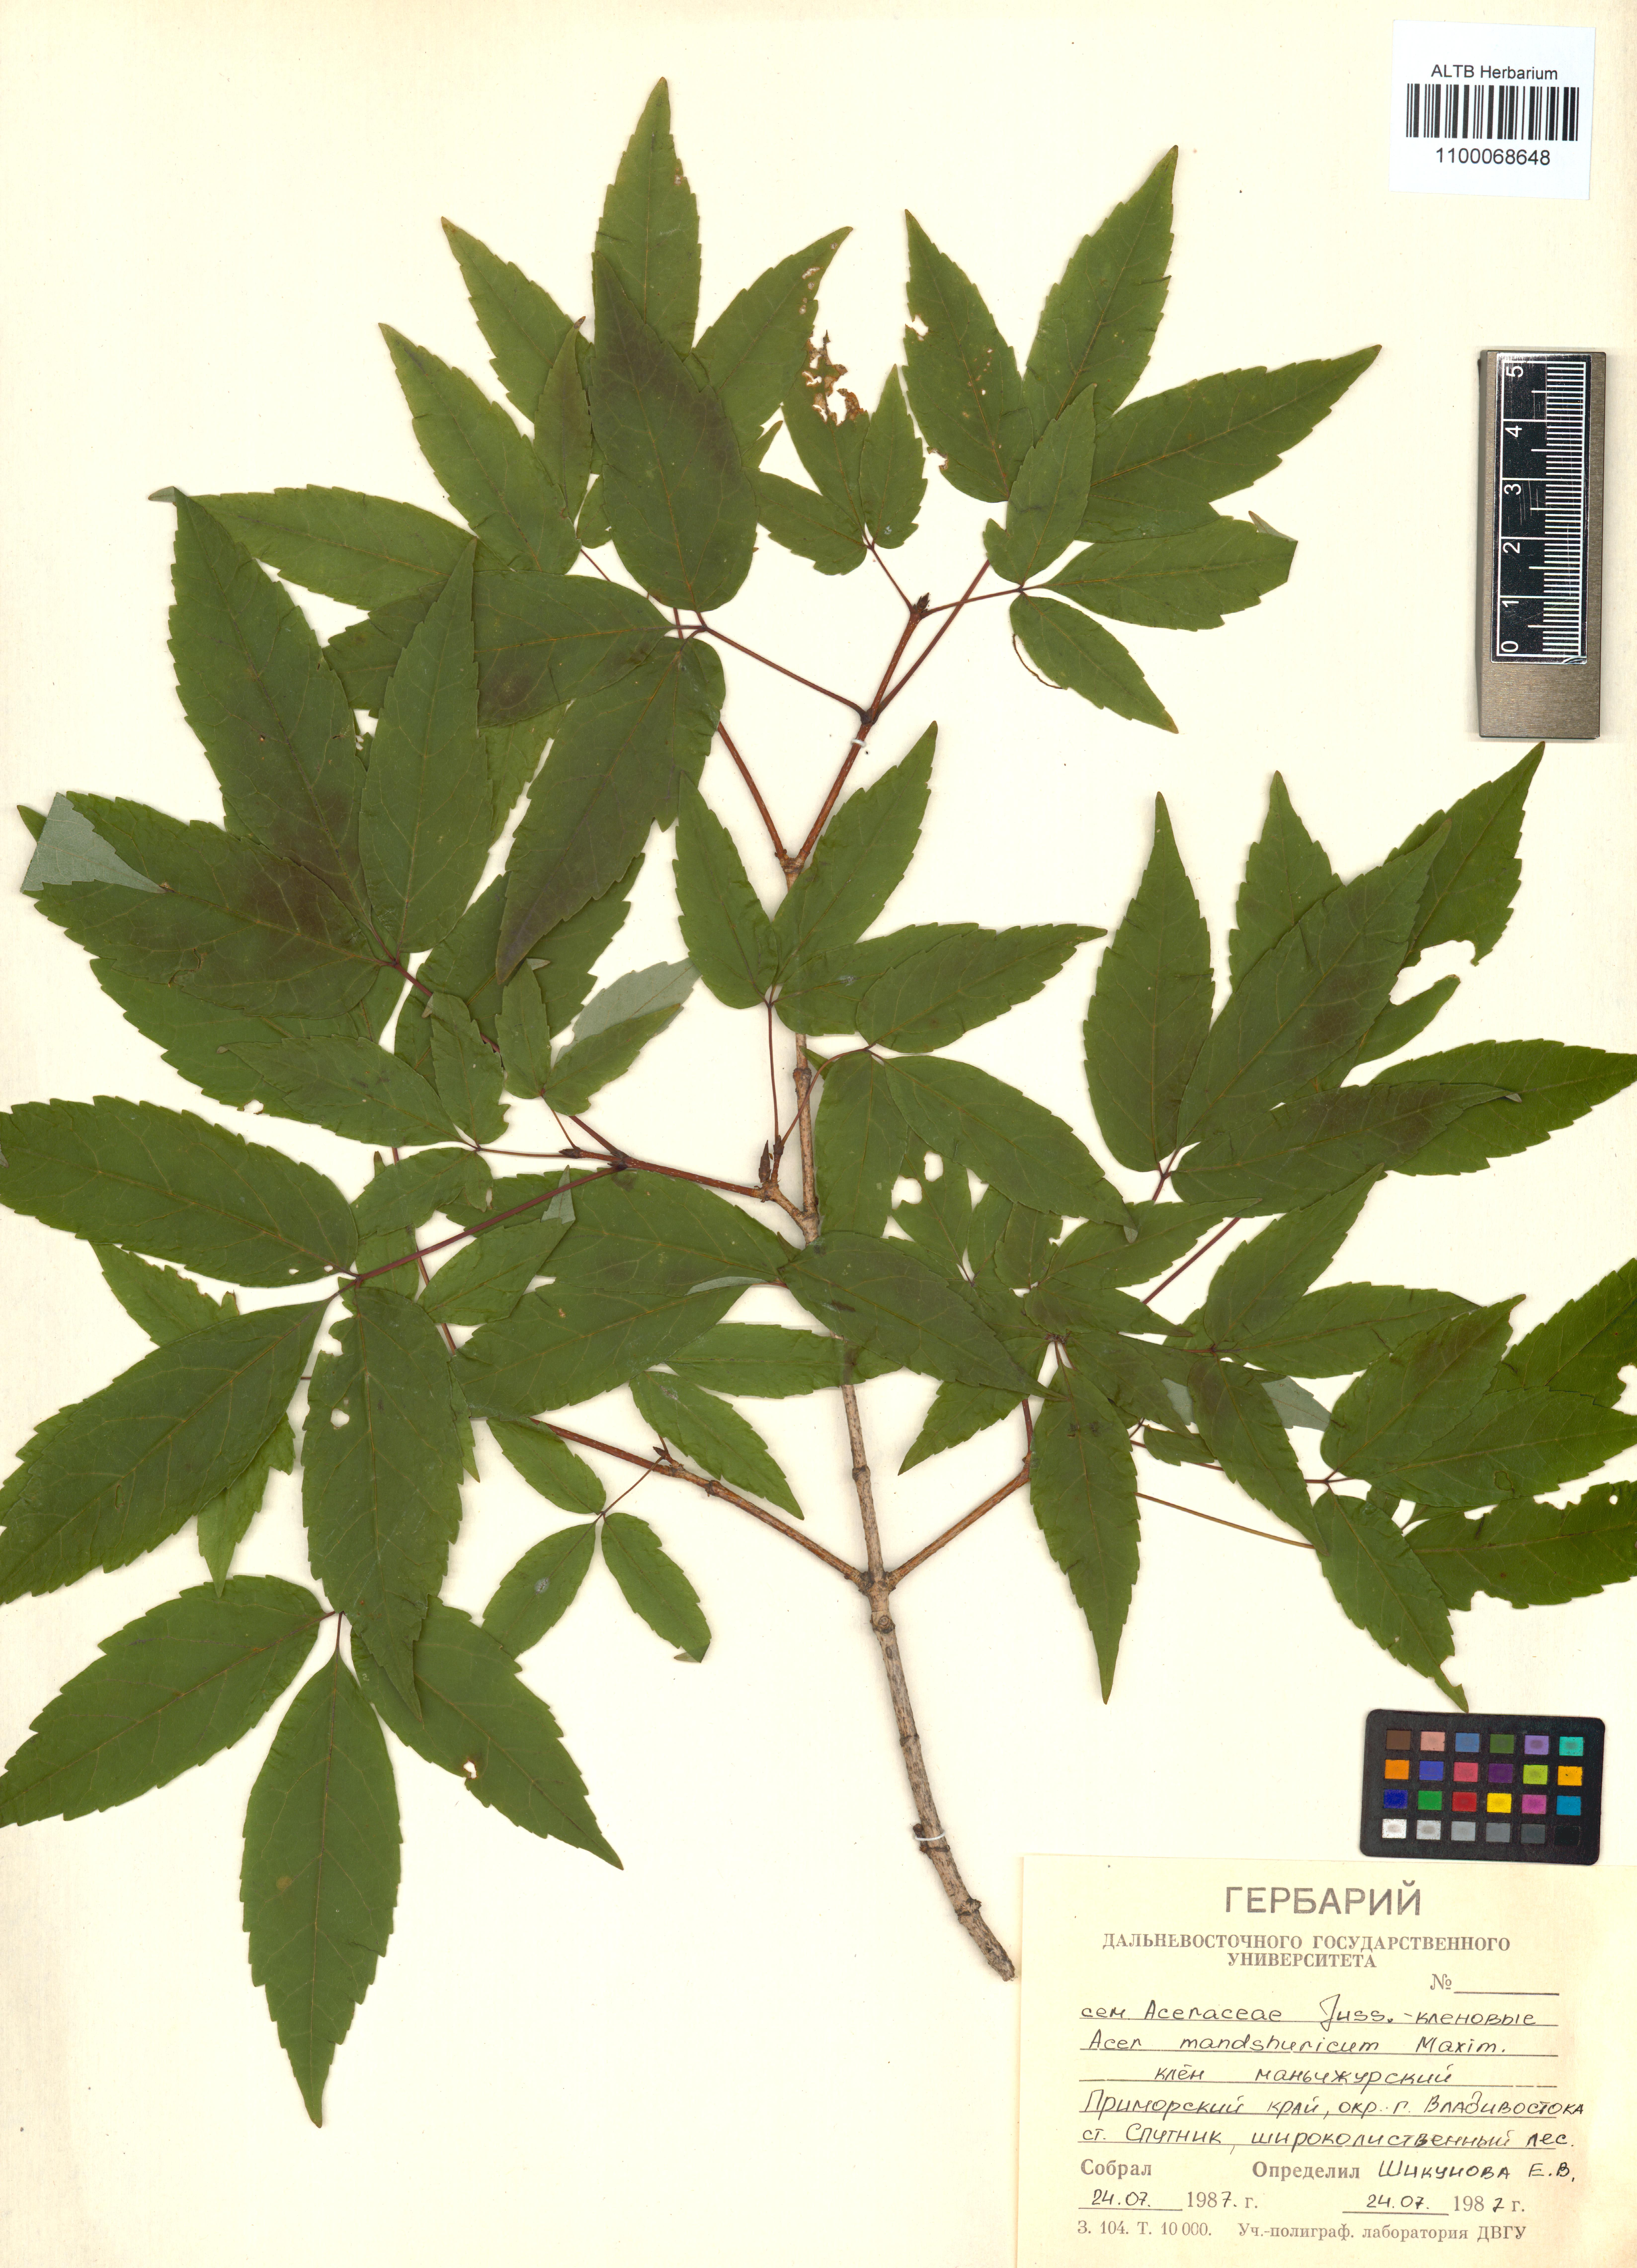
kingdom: Plantae
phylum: Tracheophyta
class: Magnoliopsida
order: Sapindales
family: Sapindaceae
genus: Acer
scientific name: Acer mandshuricum
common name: Manchurian maple
